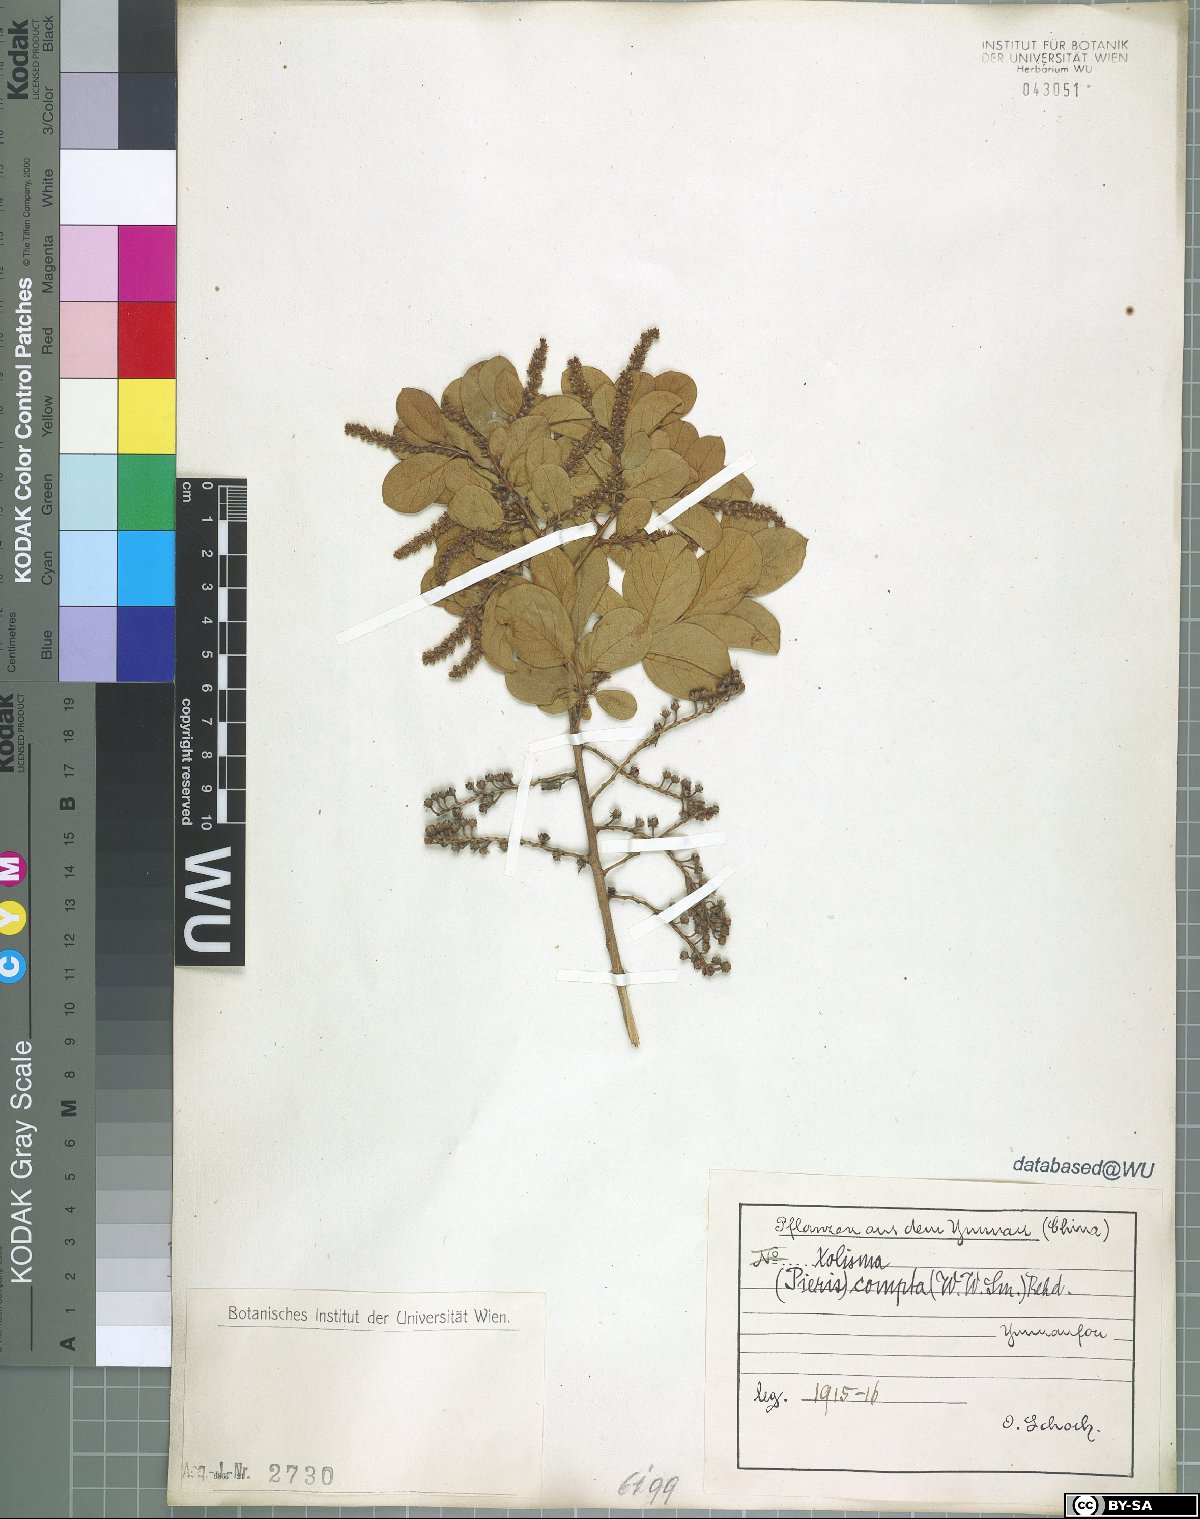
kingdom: Plantae
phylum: Tracheophyta
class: Magnoliopsida
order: Ericales
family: Ericaceae
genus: Lyonia
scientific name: Lyonia compta
